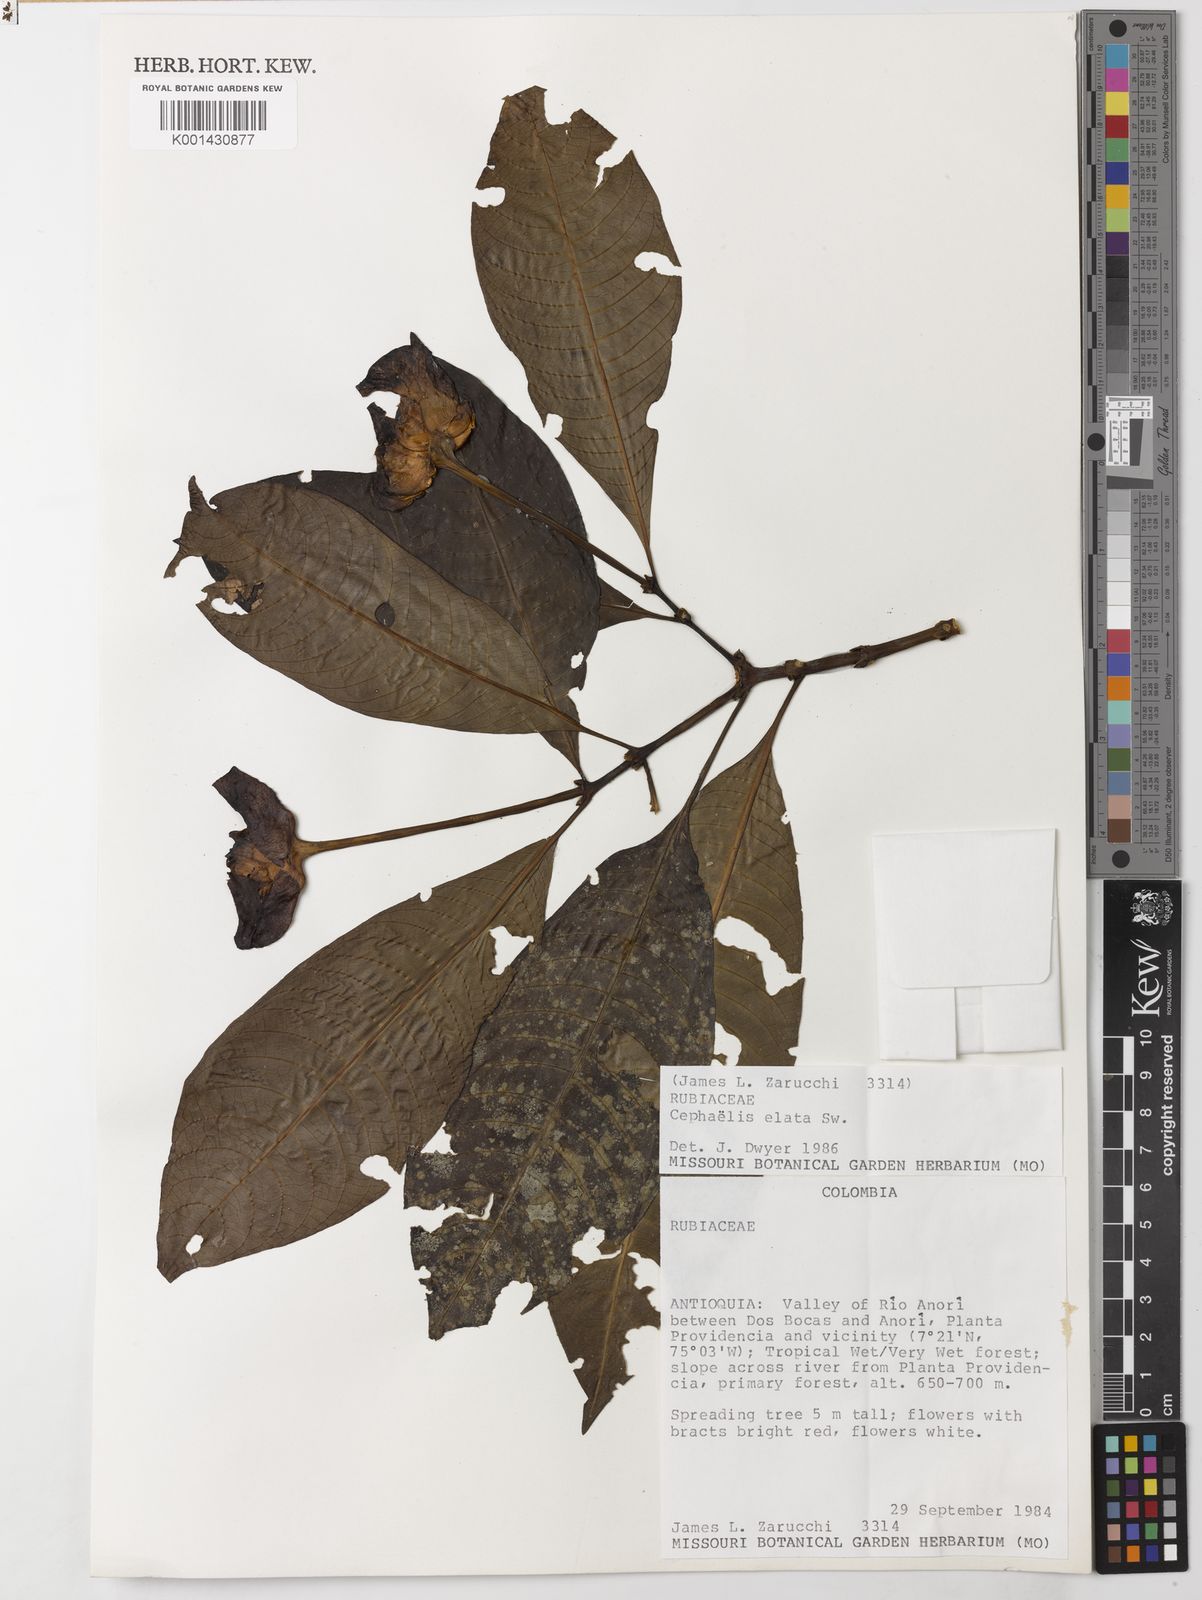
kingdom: Plantae
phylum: Tracheophyta
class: Magnoliopsida
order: Gentianales
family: Rubiaceae
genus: Palicourea
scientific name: Palicourea elata
